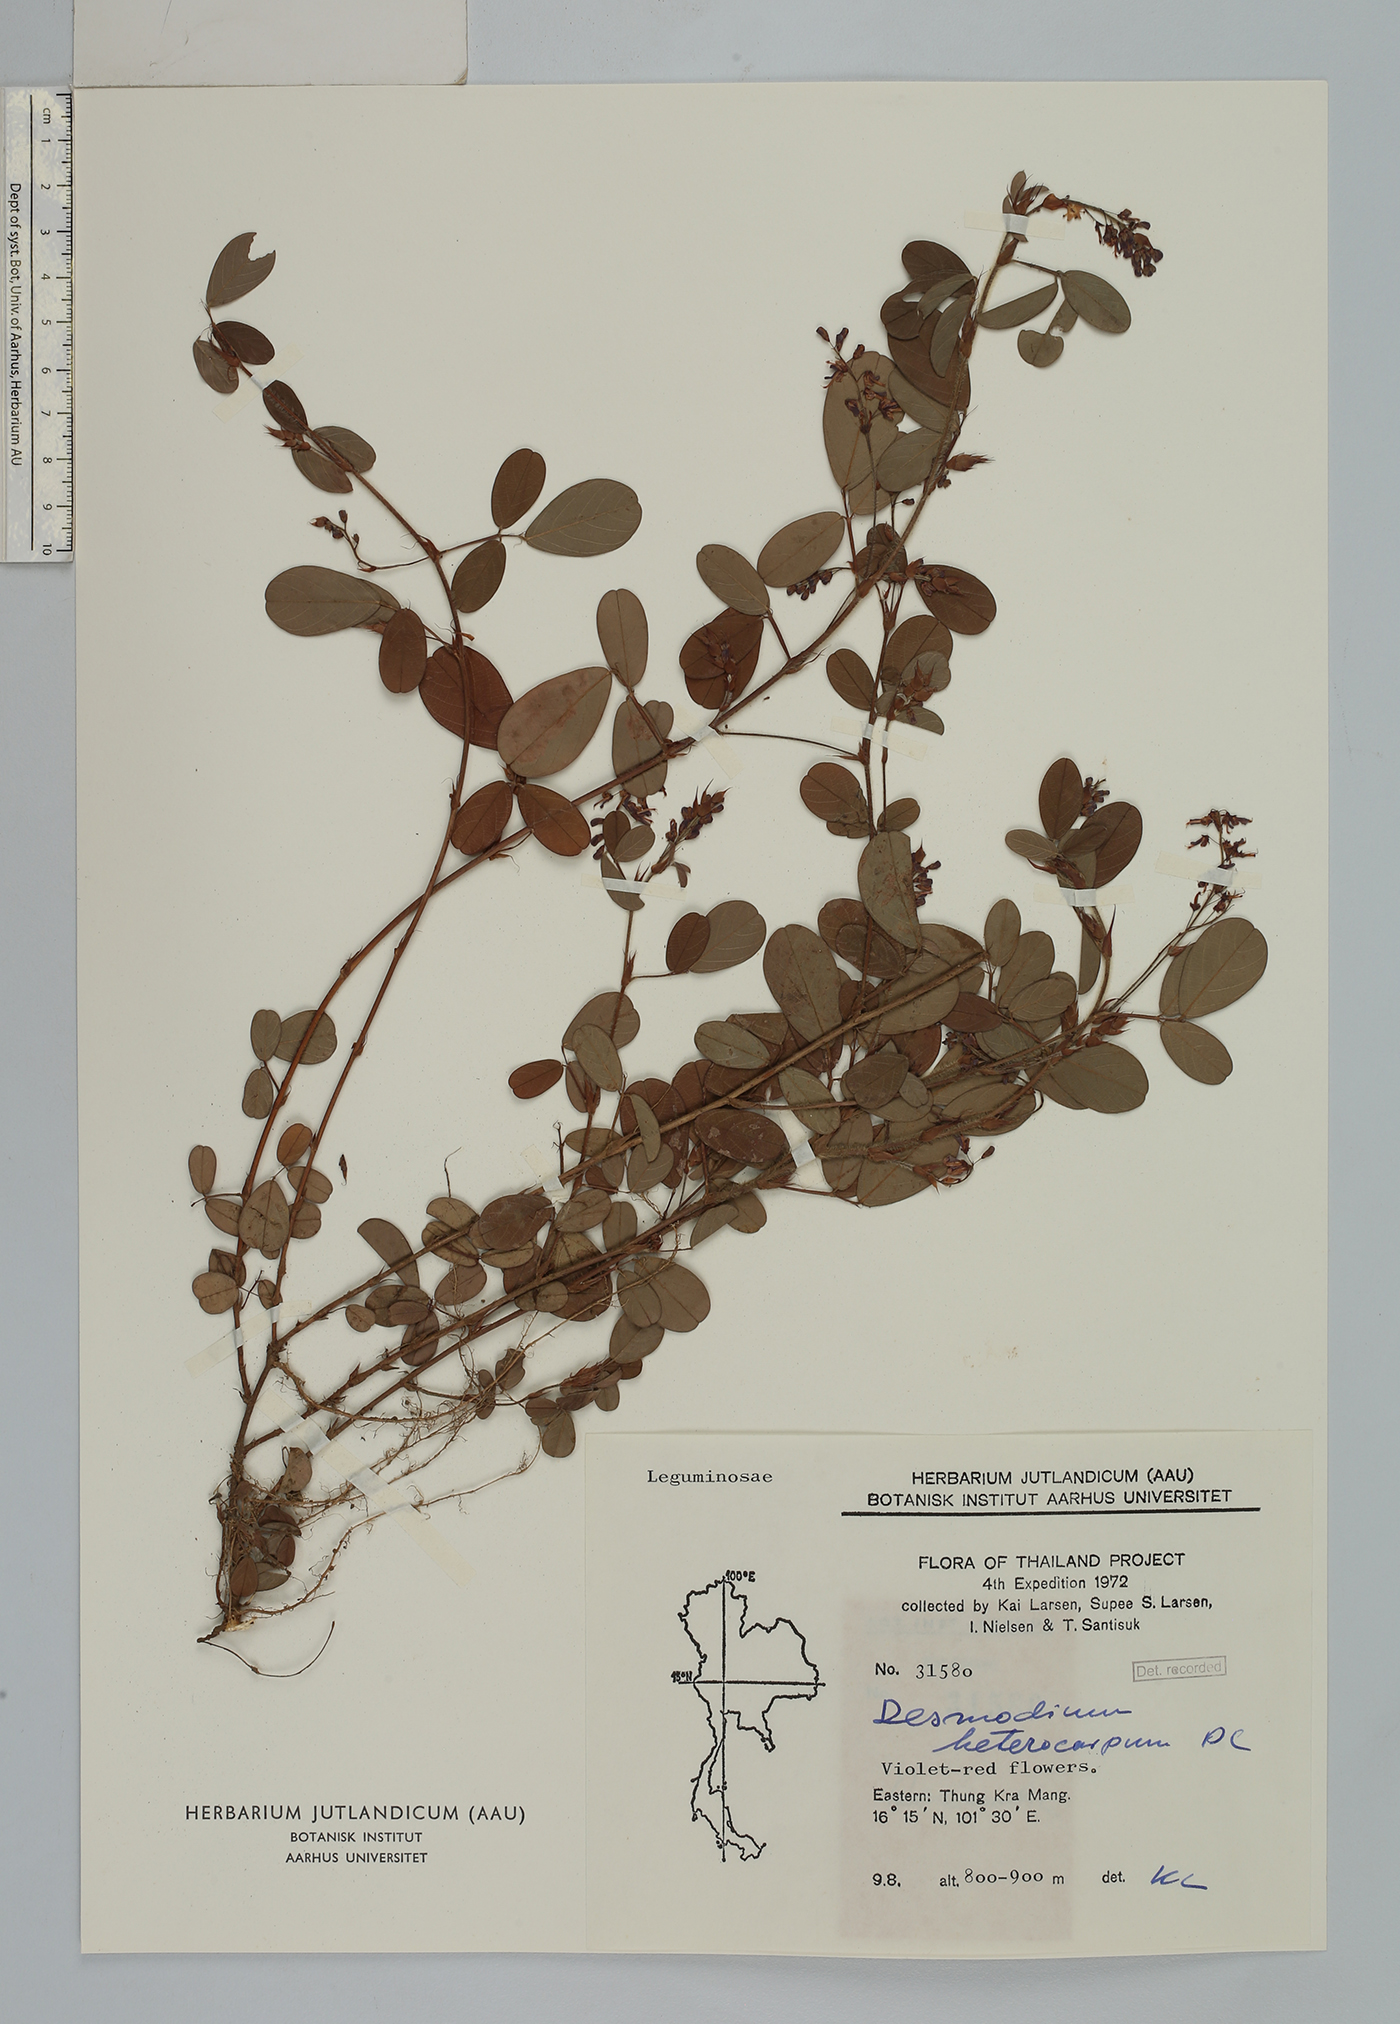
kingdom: Plantae
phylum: Tracheophyta
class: Magnoliopsida
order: Fabales
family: Fabaceae
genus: Grona
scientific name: Grona heterocarpos
